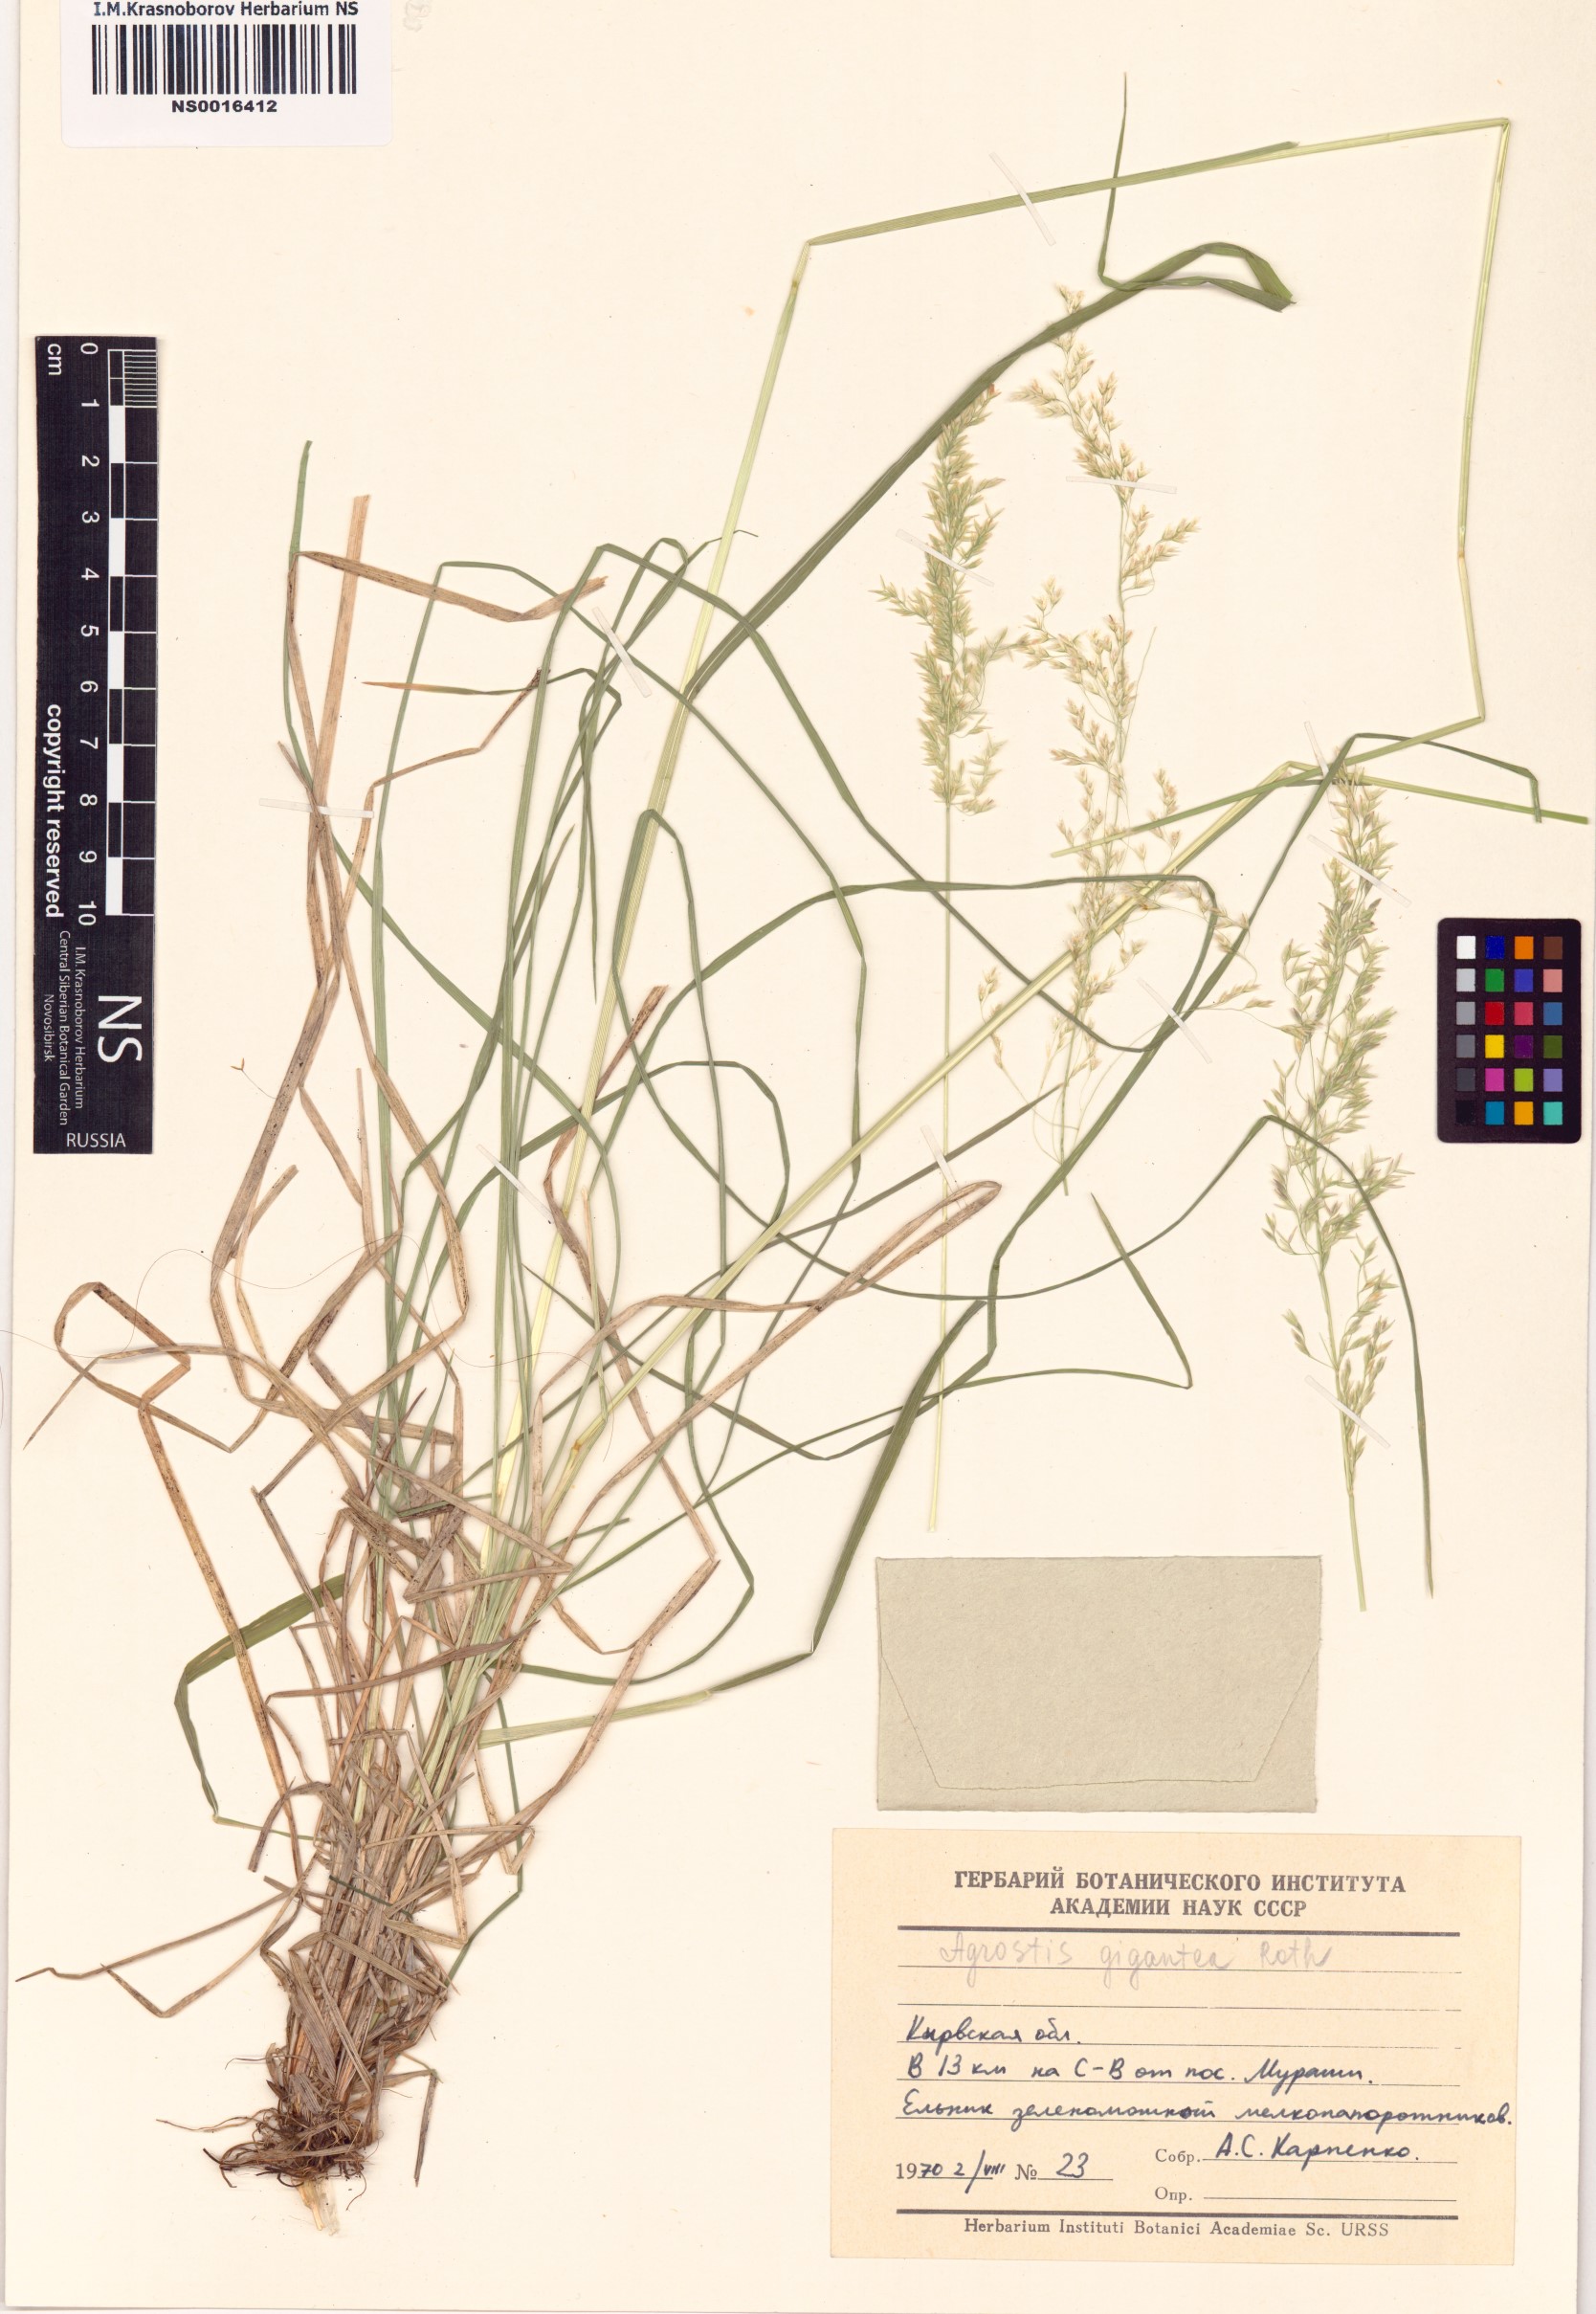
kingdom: Plantae
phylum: Tracheophyta
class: Liliopsida
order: Poales
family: Poaceae
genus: Agrostis
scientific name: Agrostis gigantea
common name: Black bent
